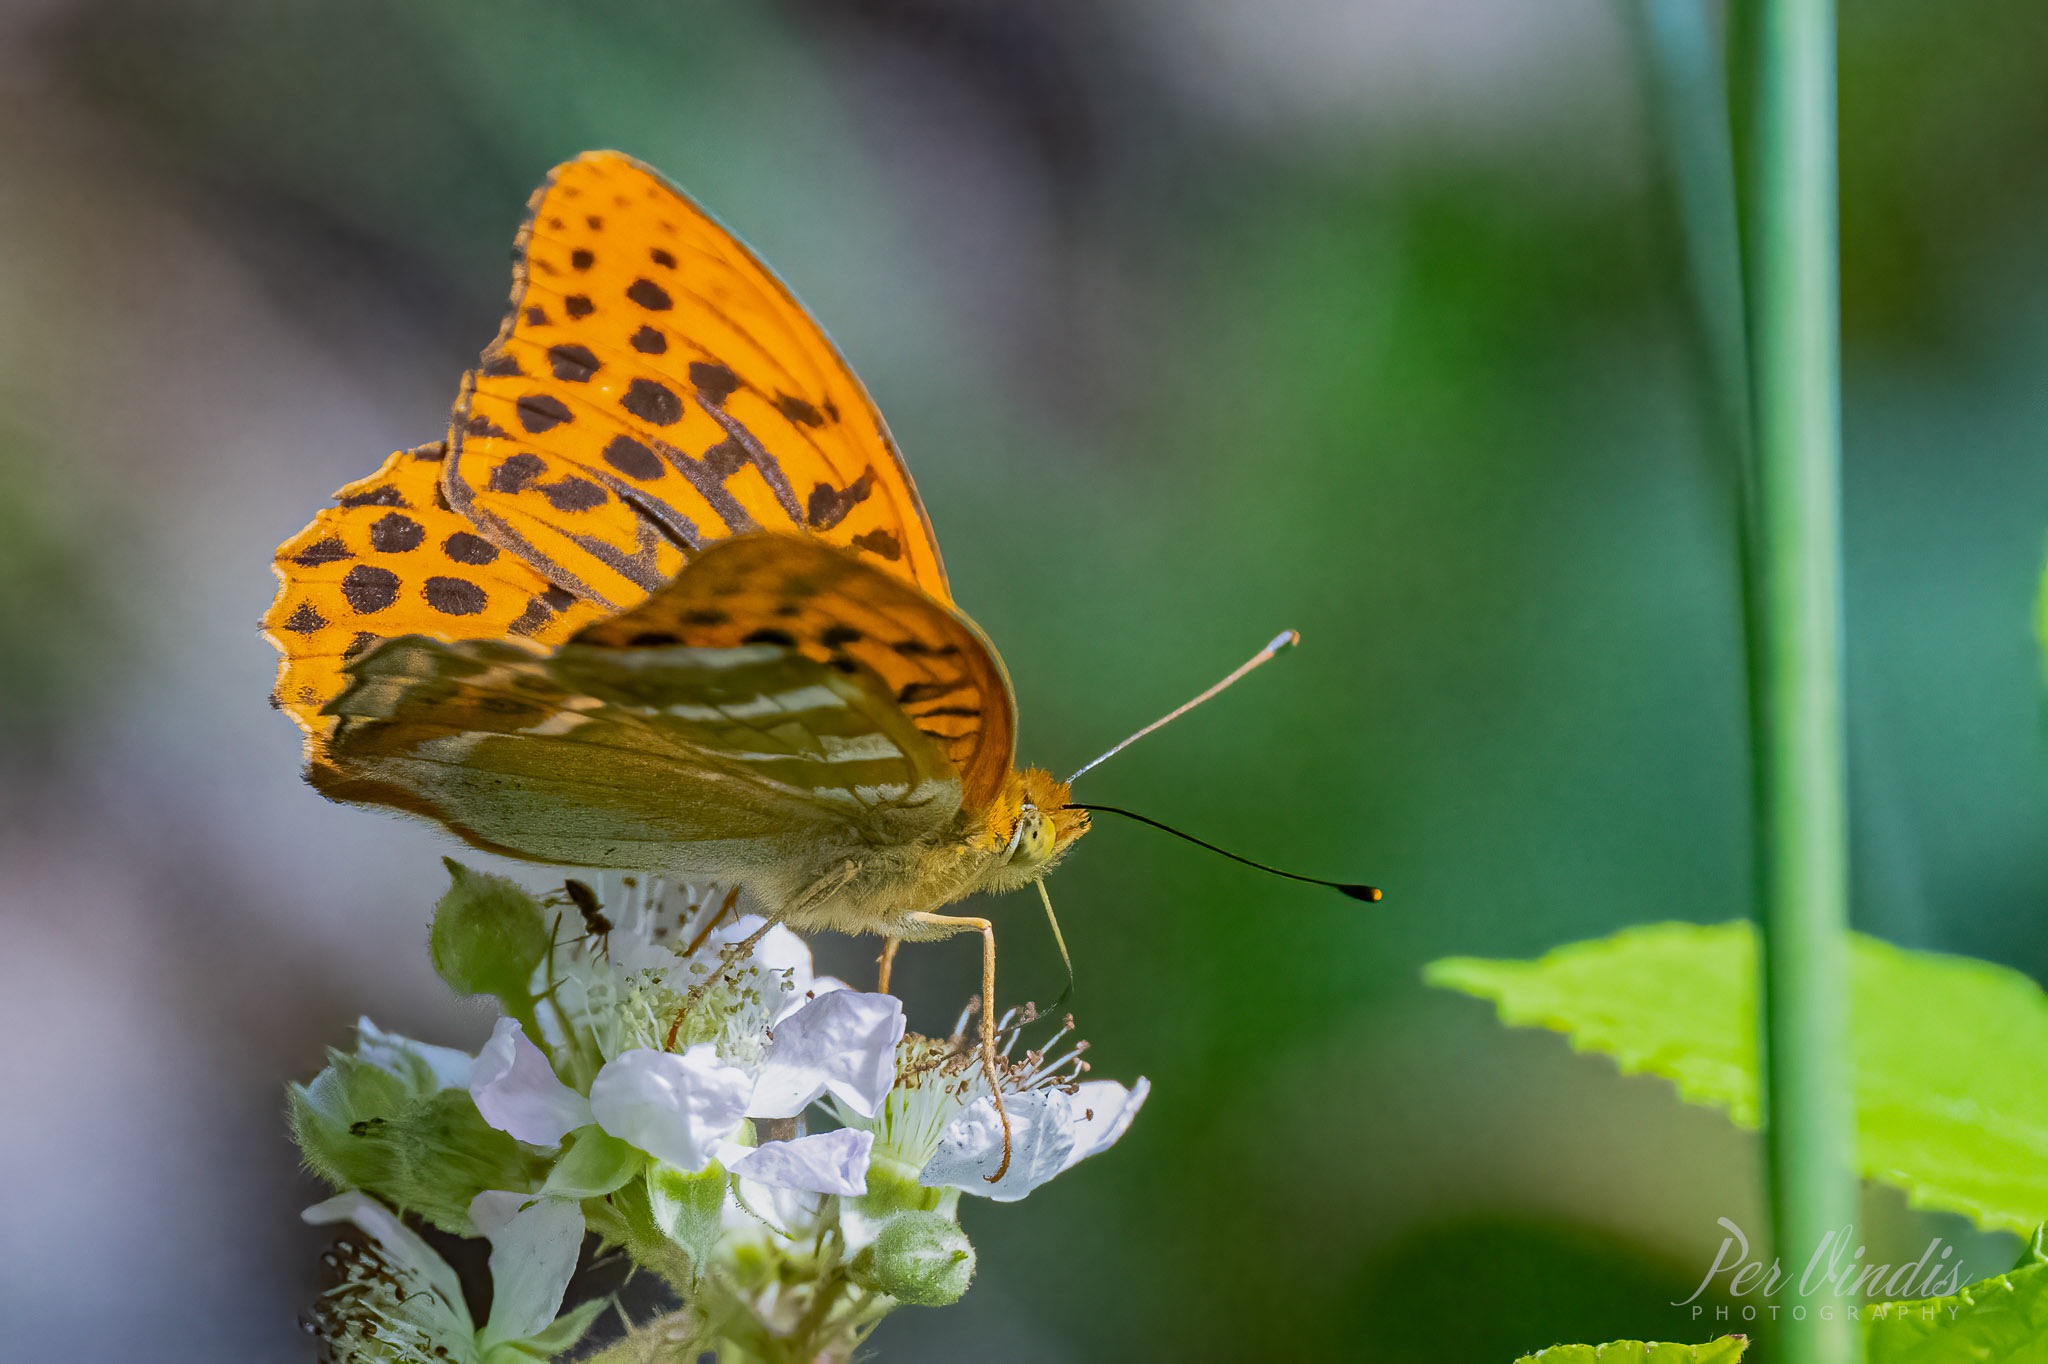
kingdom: Animalia
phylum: Arthropoda
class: Insecta
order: Lepidoptera
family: Nymphalidae
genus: Argynnis
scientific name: Argynnis paphia
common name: Kejserkåbe
